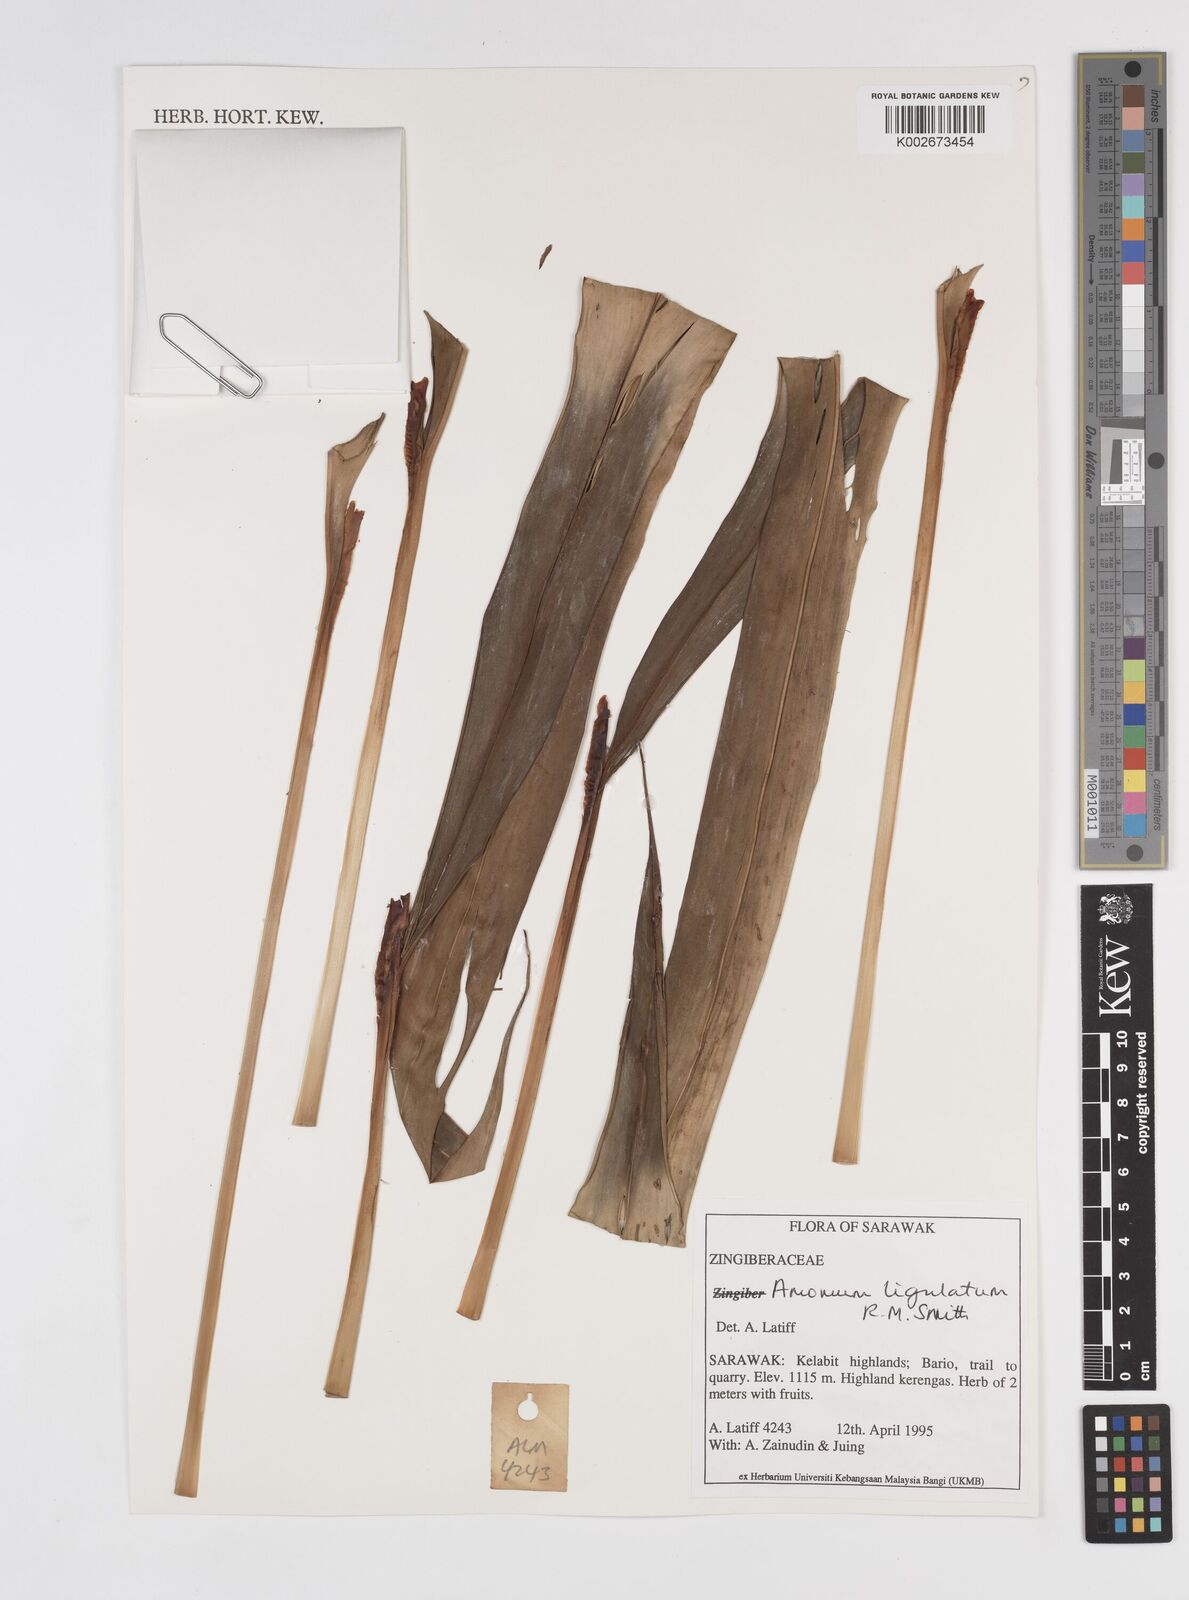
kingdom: Plantae
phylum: Tracheophyta
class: Liliopsida
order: Zingiberales
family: Zingiberaceae
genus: Sulettaria
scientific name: Sulettaria ligulata
